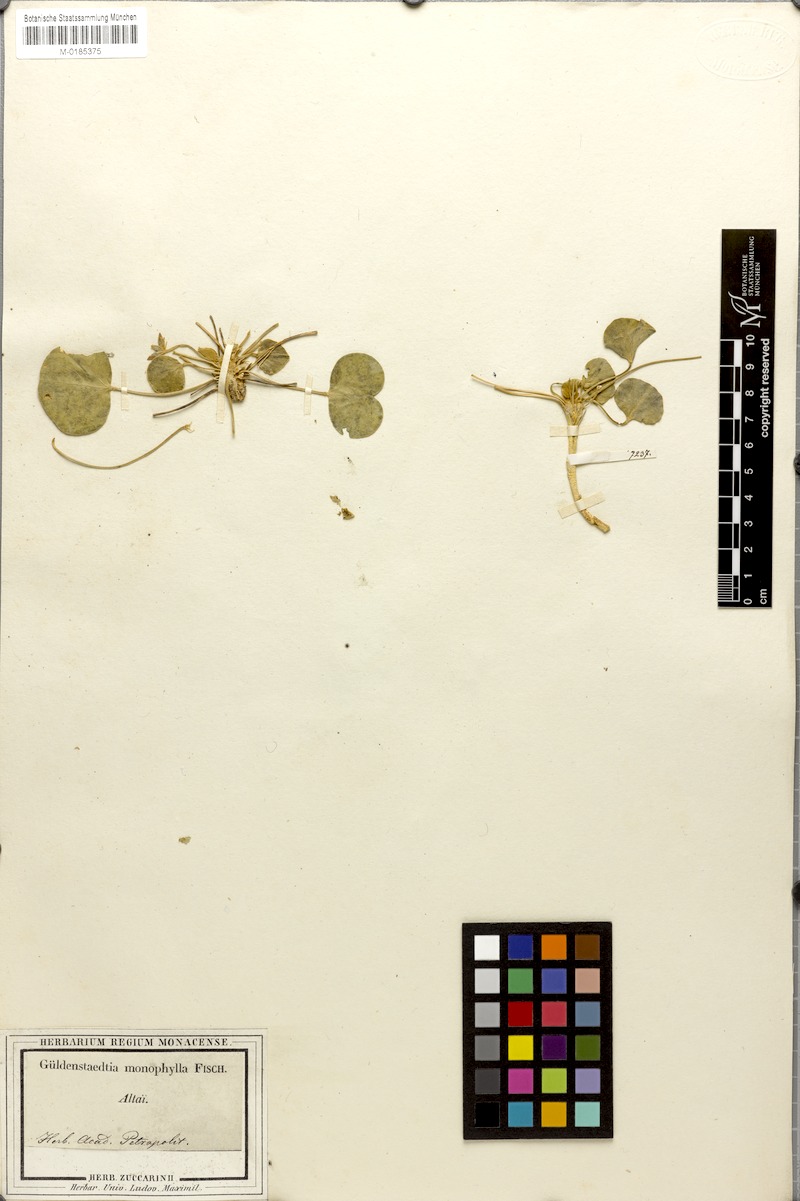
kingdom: Plantae
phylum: Tracheophyta
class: Magnoliopsida
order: Fabales
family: Fabaceae
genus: Gueldenstaedtia
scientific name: Gueldenstaedtia monophylla
